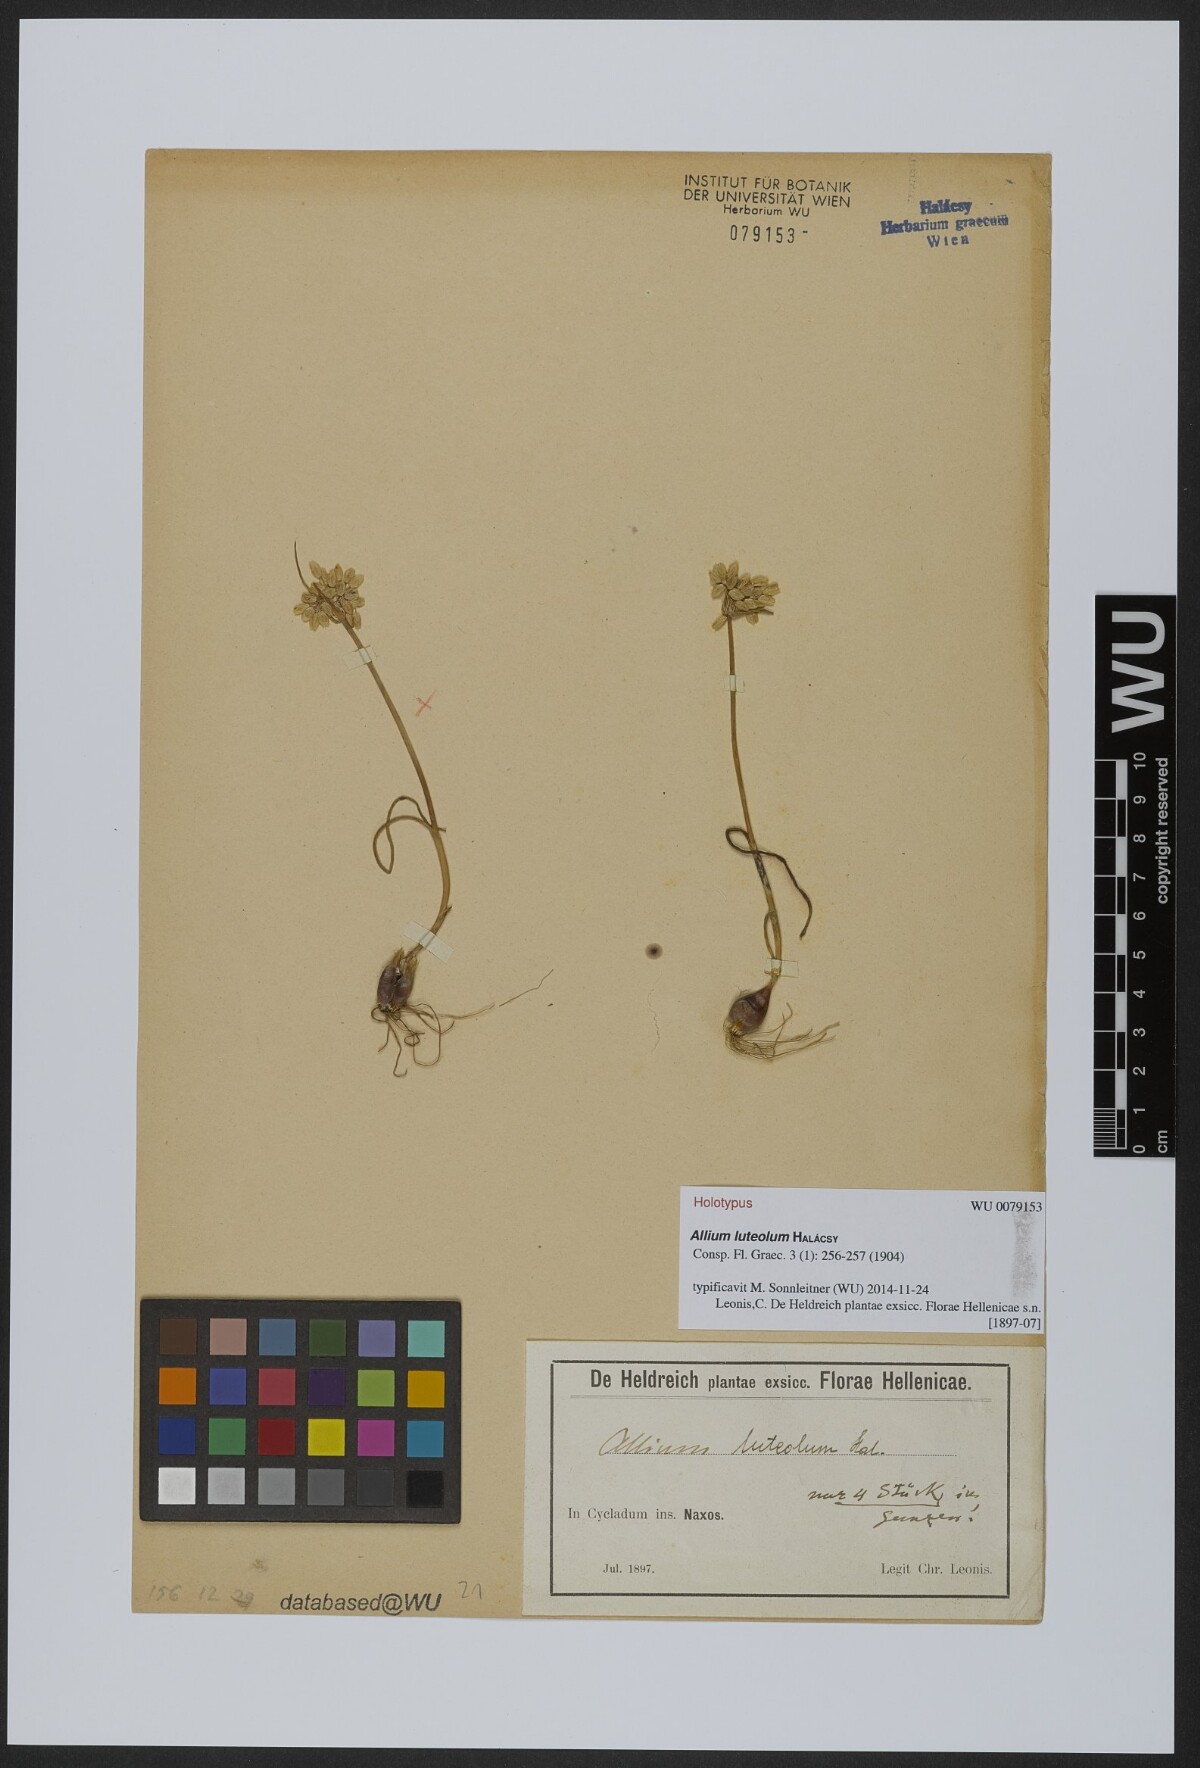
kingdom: Plantae
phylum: Tracheophyta
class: Liliopsida
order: Asparagales
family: Amaryllidaceae
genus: Allium
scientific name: Allium luteolum
